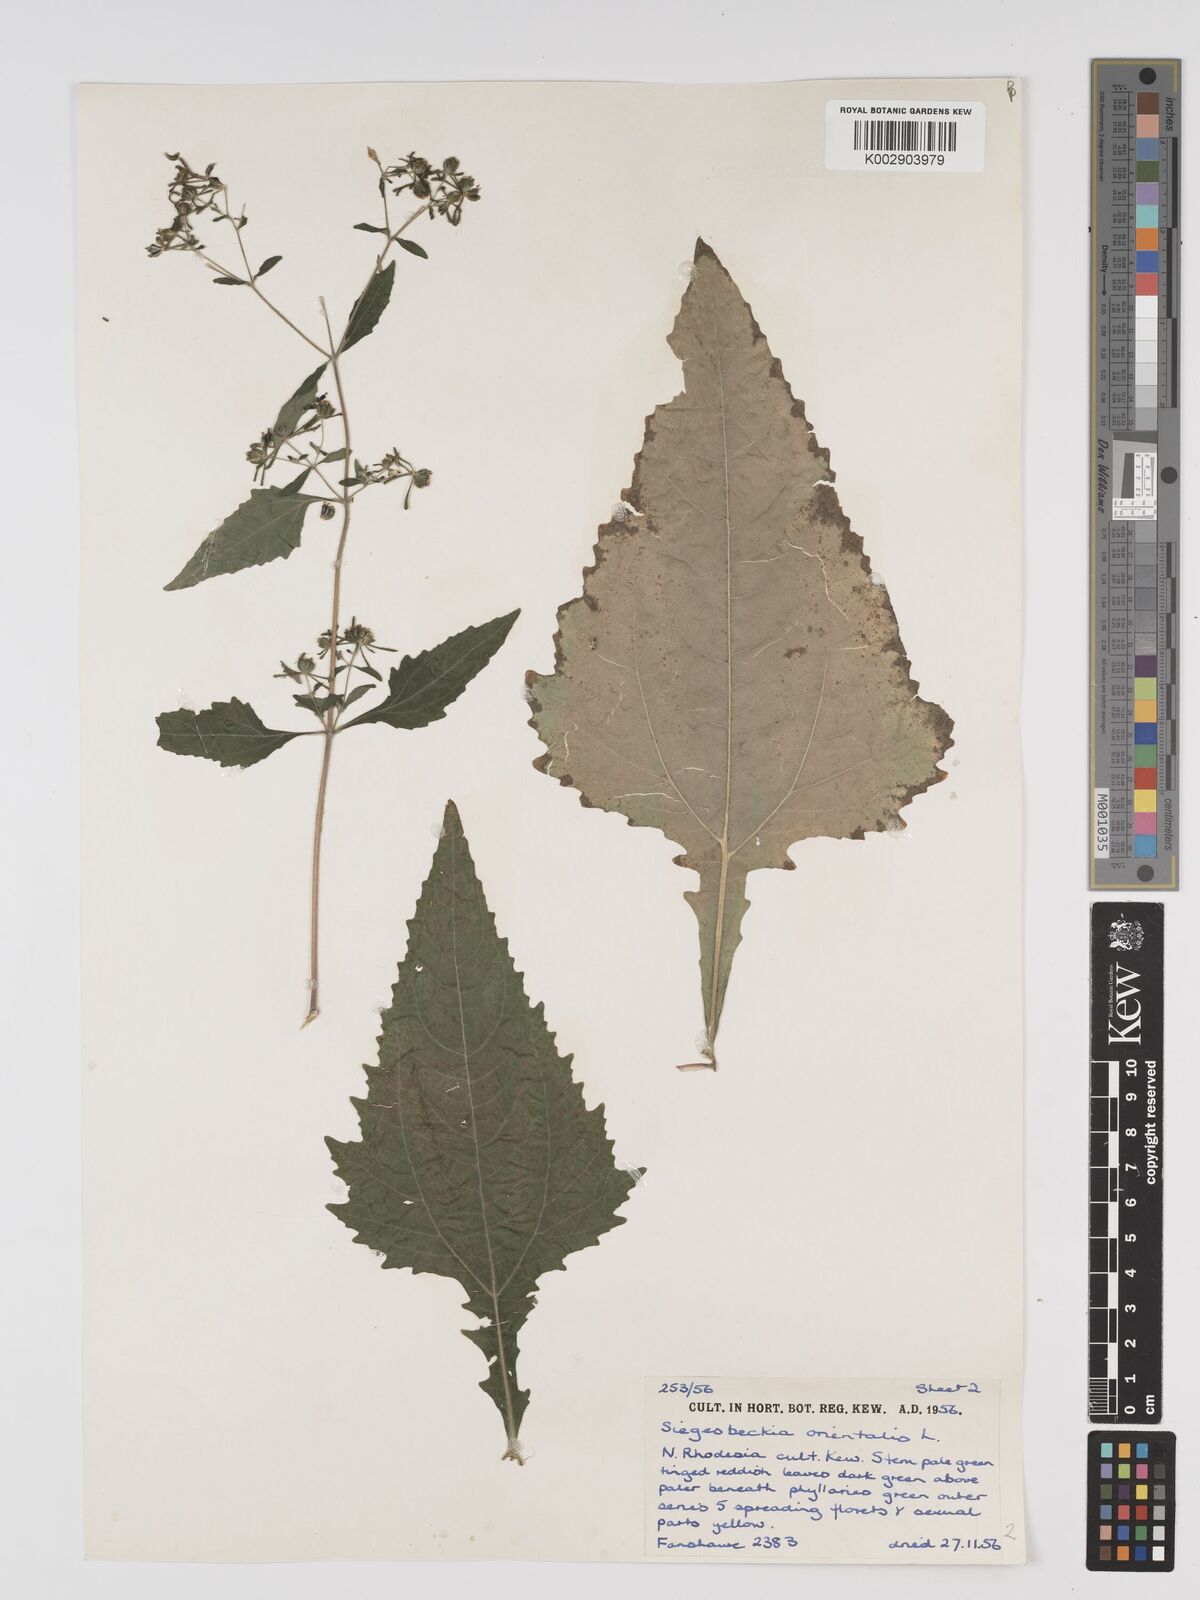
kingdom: Plantae
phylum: Tracheophyta
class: Magnoliopsida
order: Asterales
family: Asteraceae
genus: Sigesbeckia
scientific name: Sigesbeckia orientalis
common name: Eastern st paul's-wort
